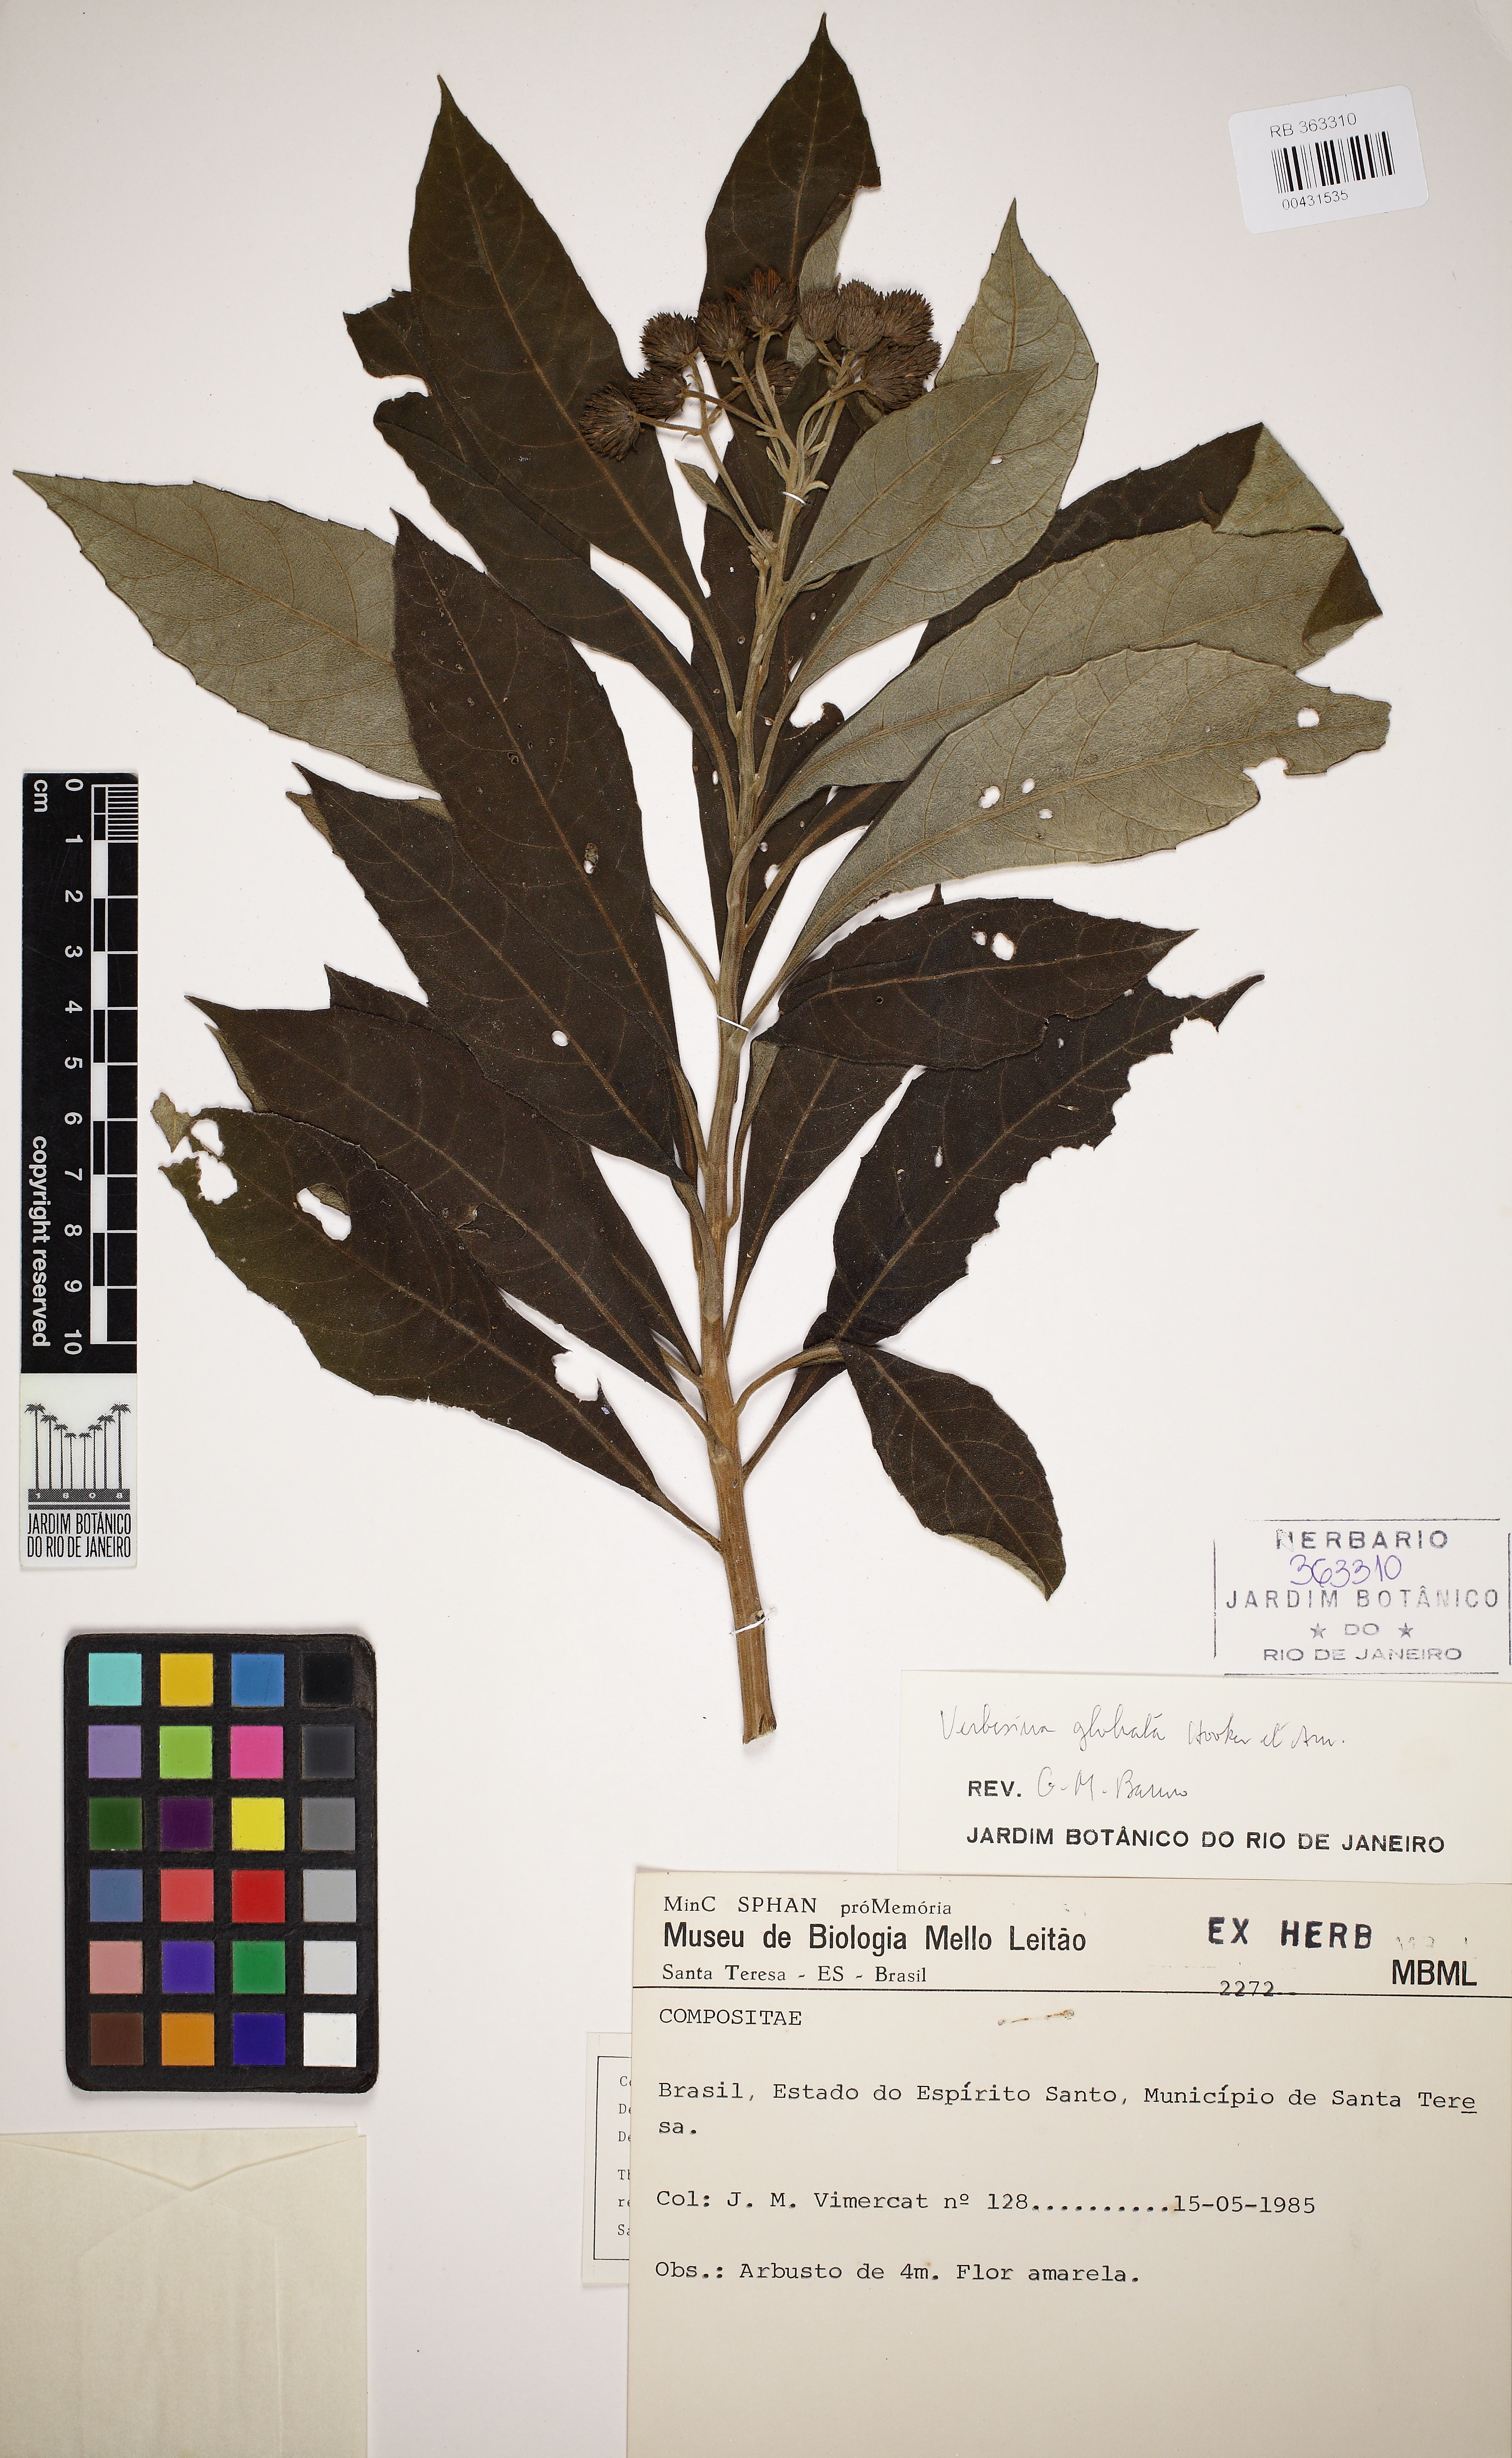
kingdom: Plantae
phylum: Tracheophyta
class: Magnoliopsida
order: Asterales
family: Asteraceae
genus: Verbesina
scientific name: Verbesina glabrata
